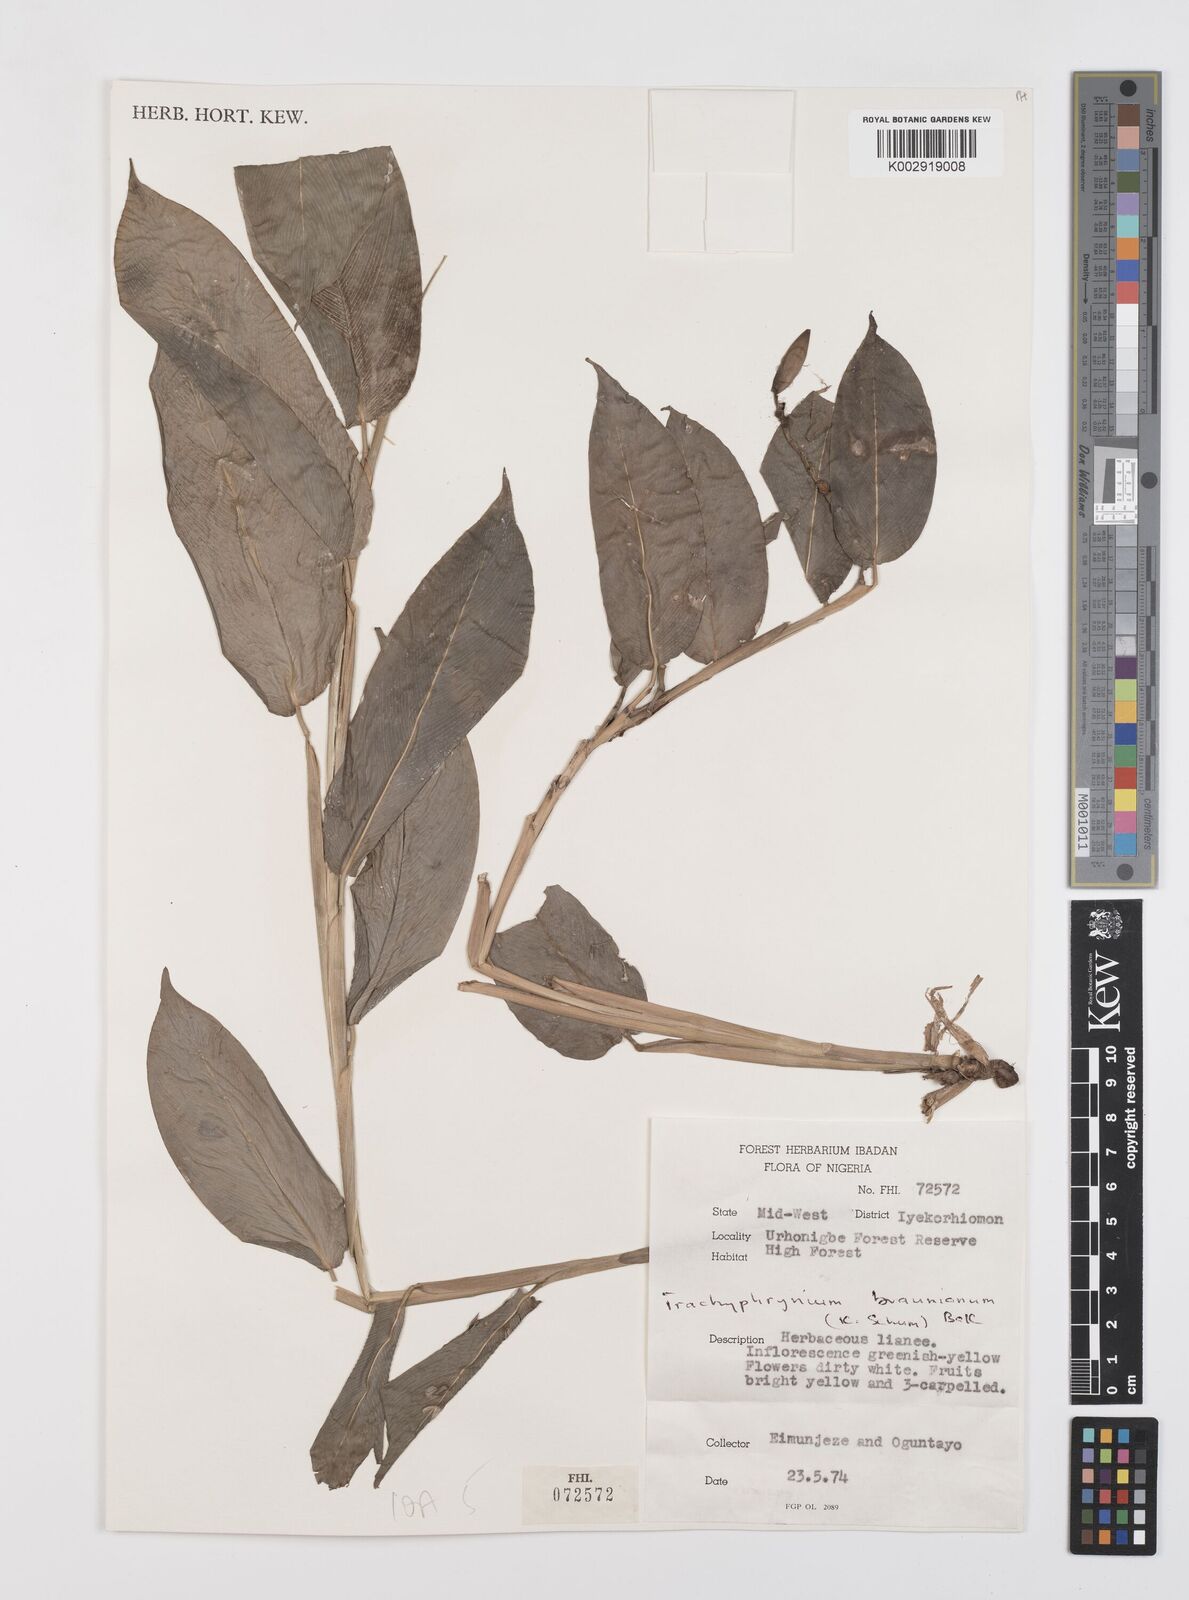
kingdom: Plantae
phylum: Tracheophyta
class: Liliopsida
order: Zingiberales
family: Marantaceae
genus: Trachyphrynium
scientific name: Trachyphrynium braunianum
